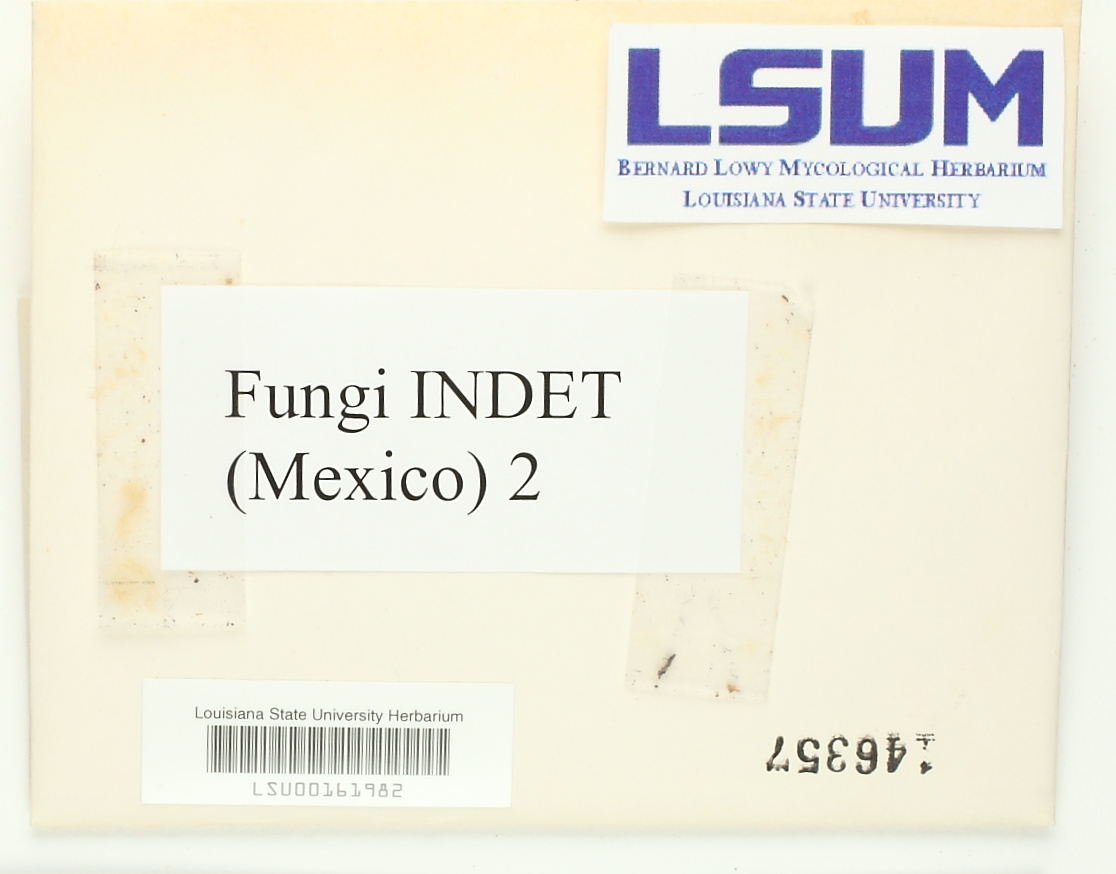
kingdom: Fungi
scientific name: Fungi
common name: Fungi
